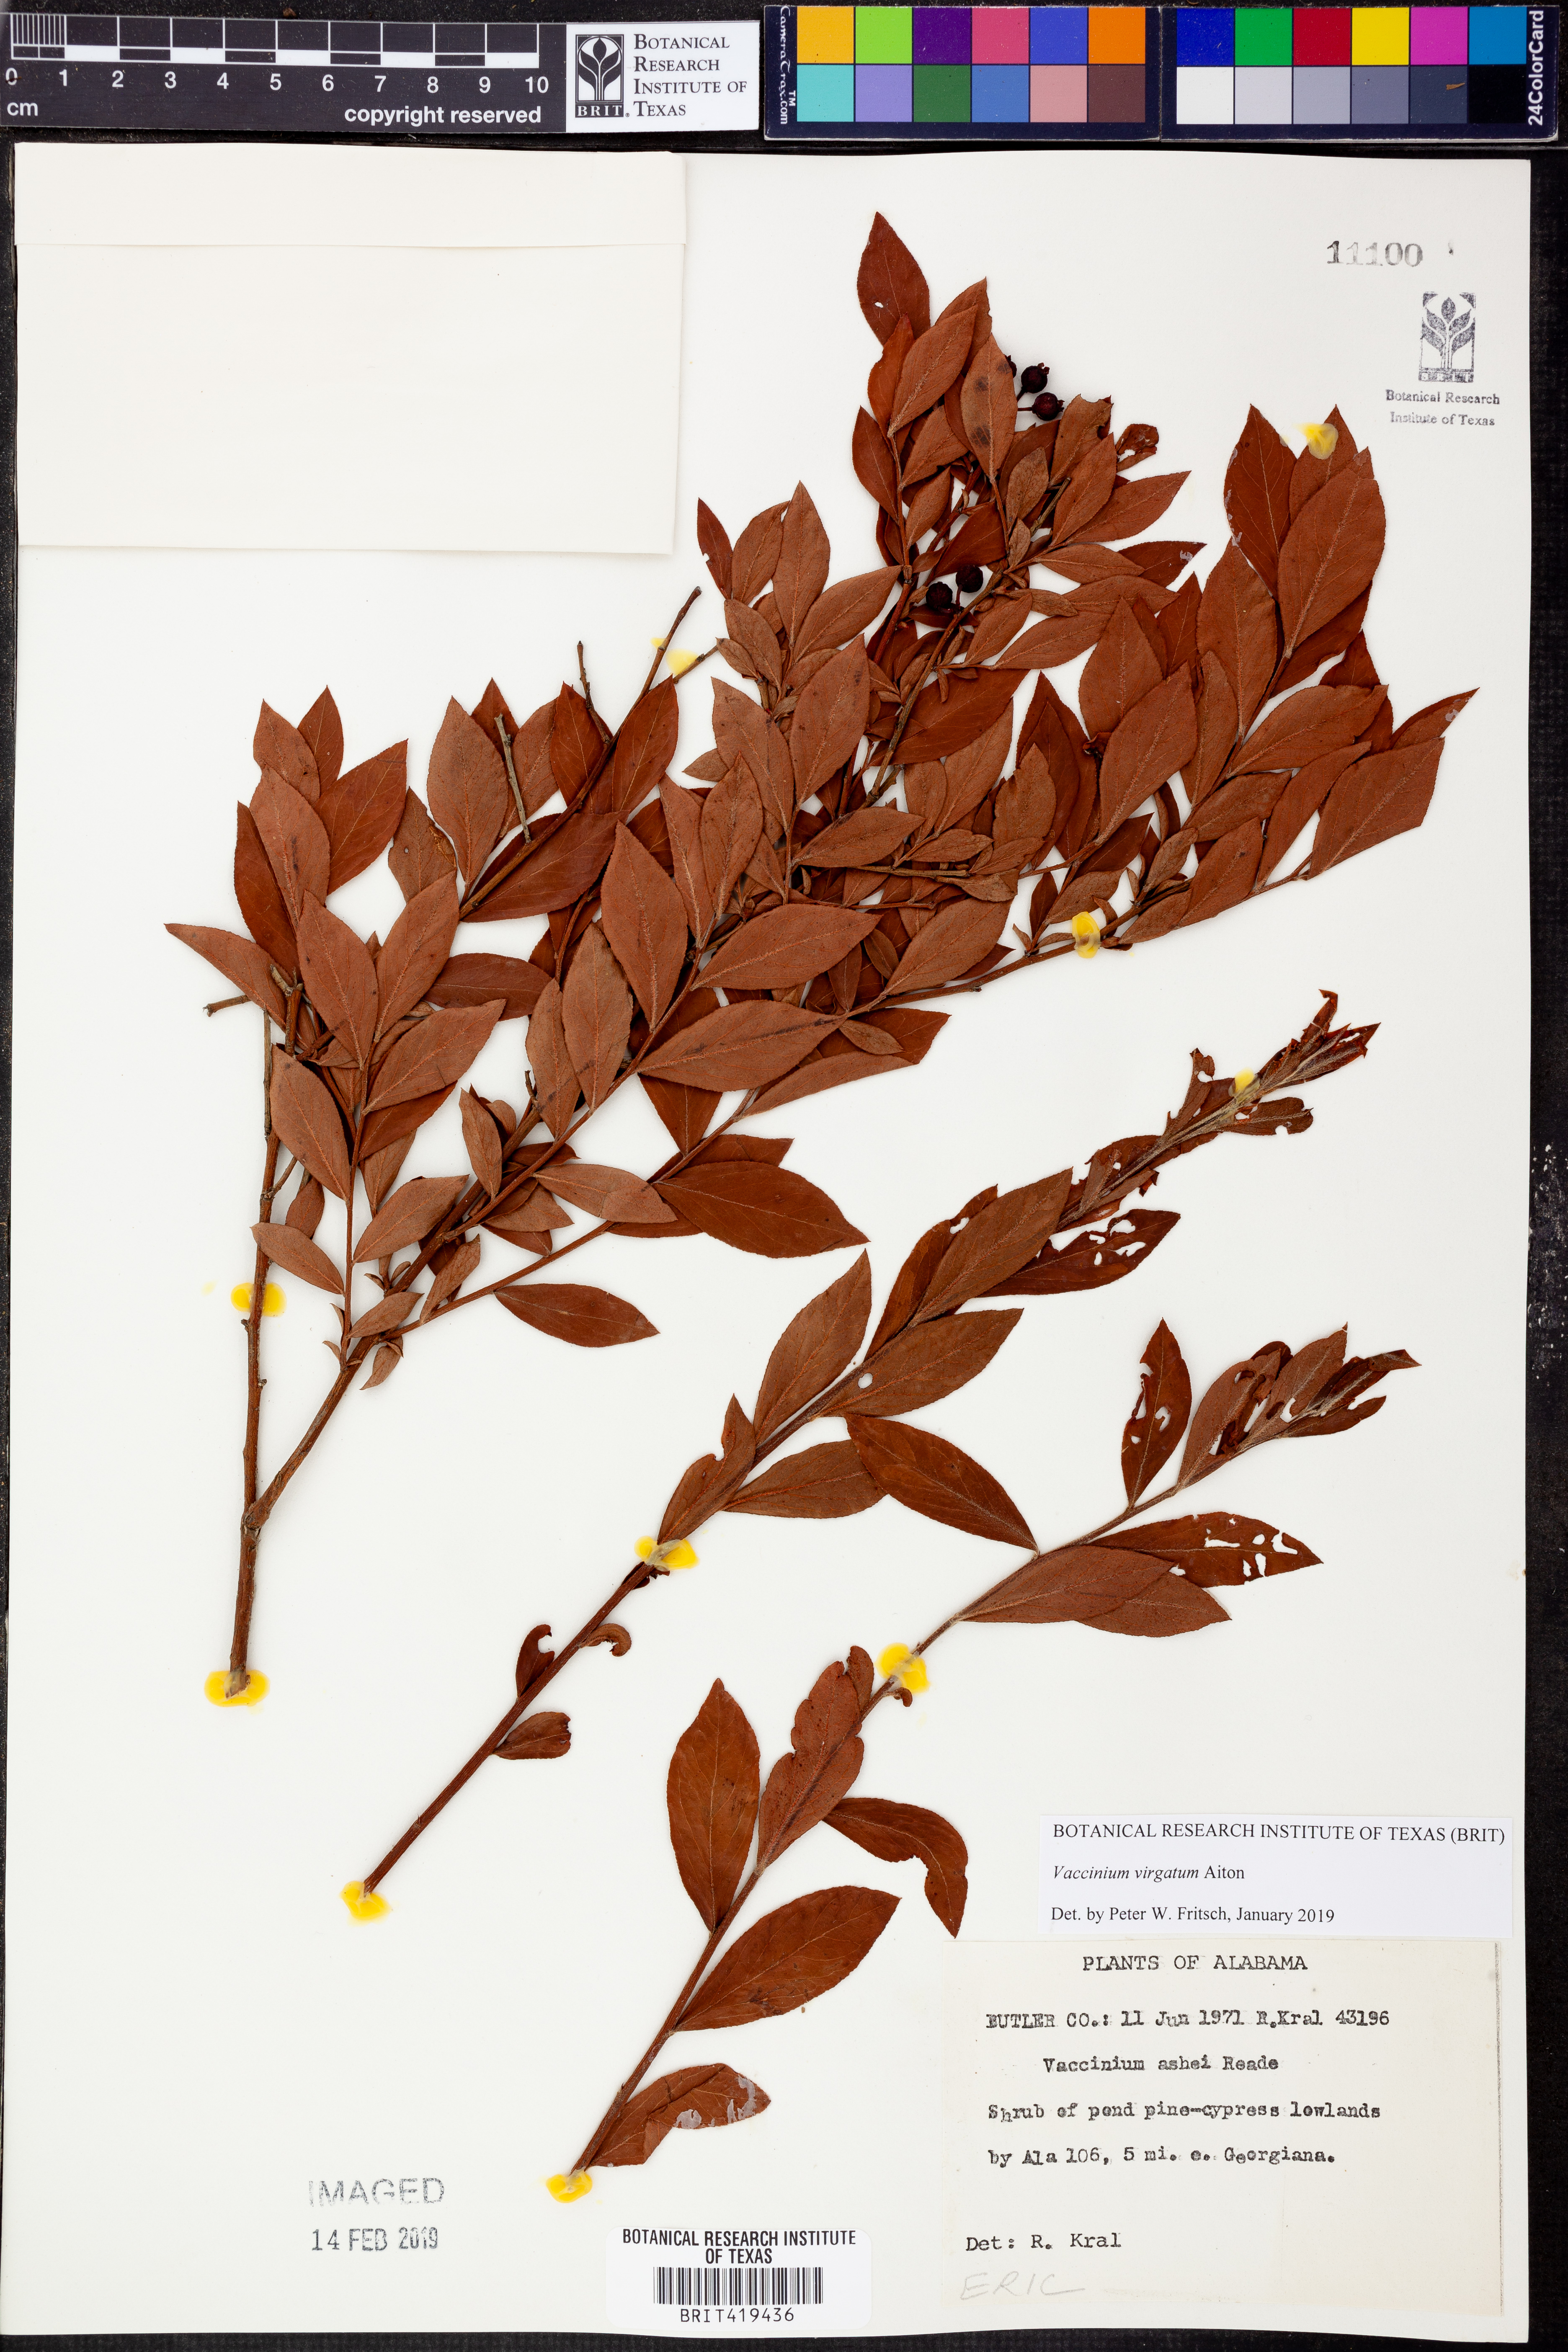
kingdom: Plantae
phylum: Tracheophyta
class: Magnoliopsida
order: Ericales
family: Ericaceae
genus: Vaccinium
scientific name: Vaccinium corymbosum
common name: Blueberry
